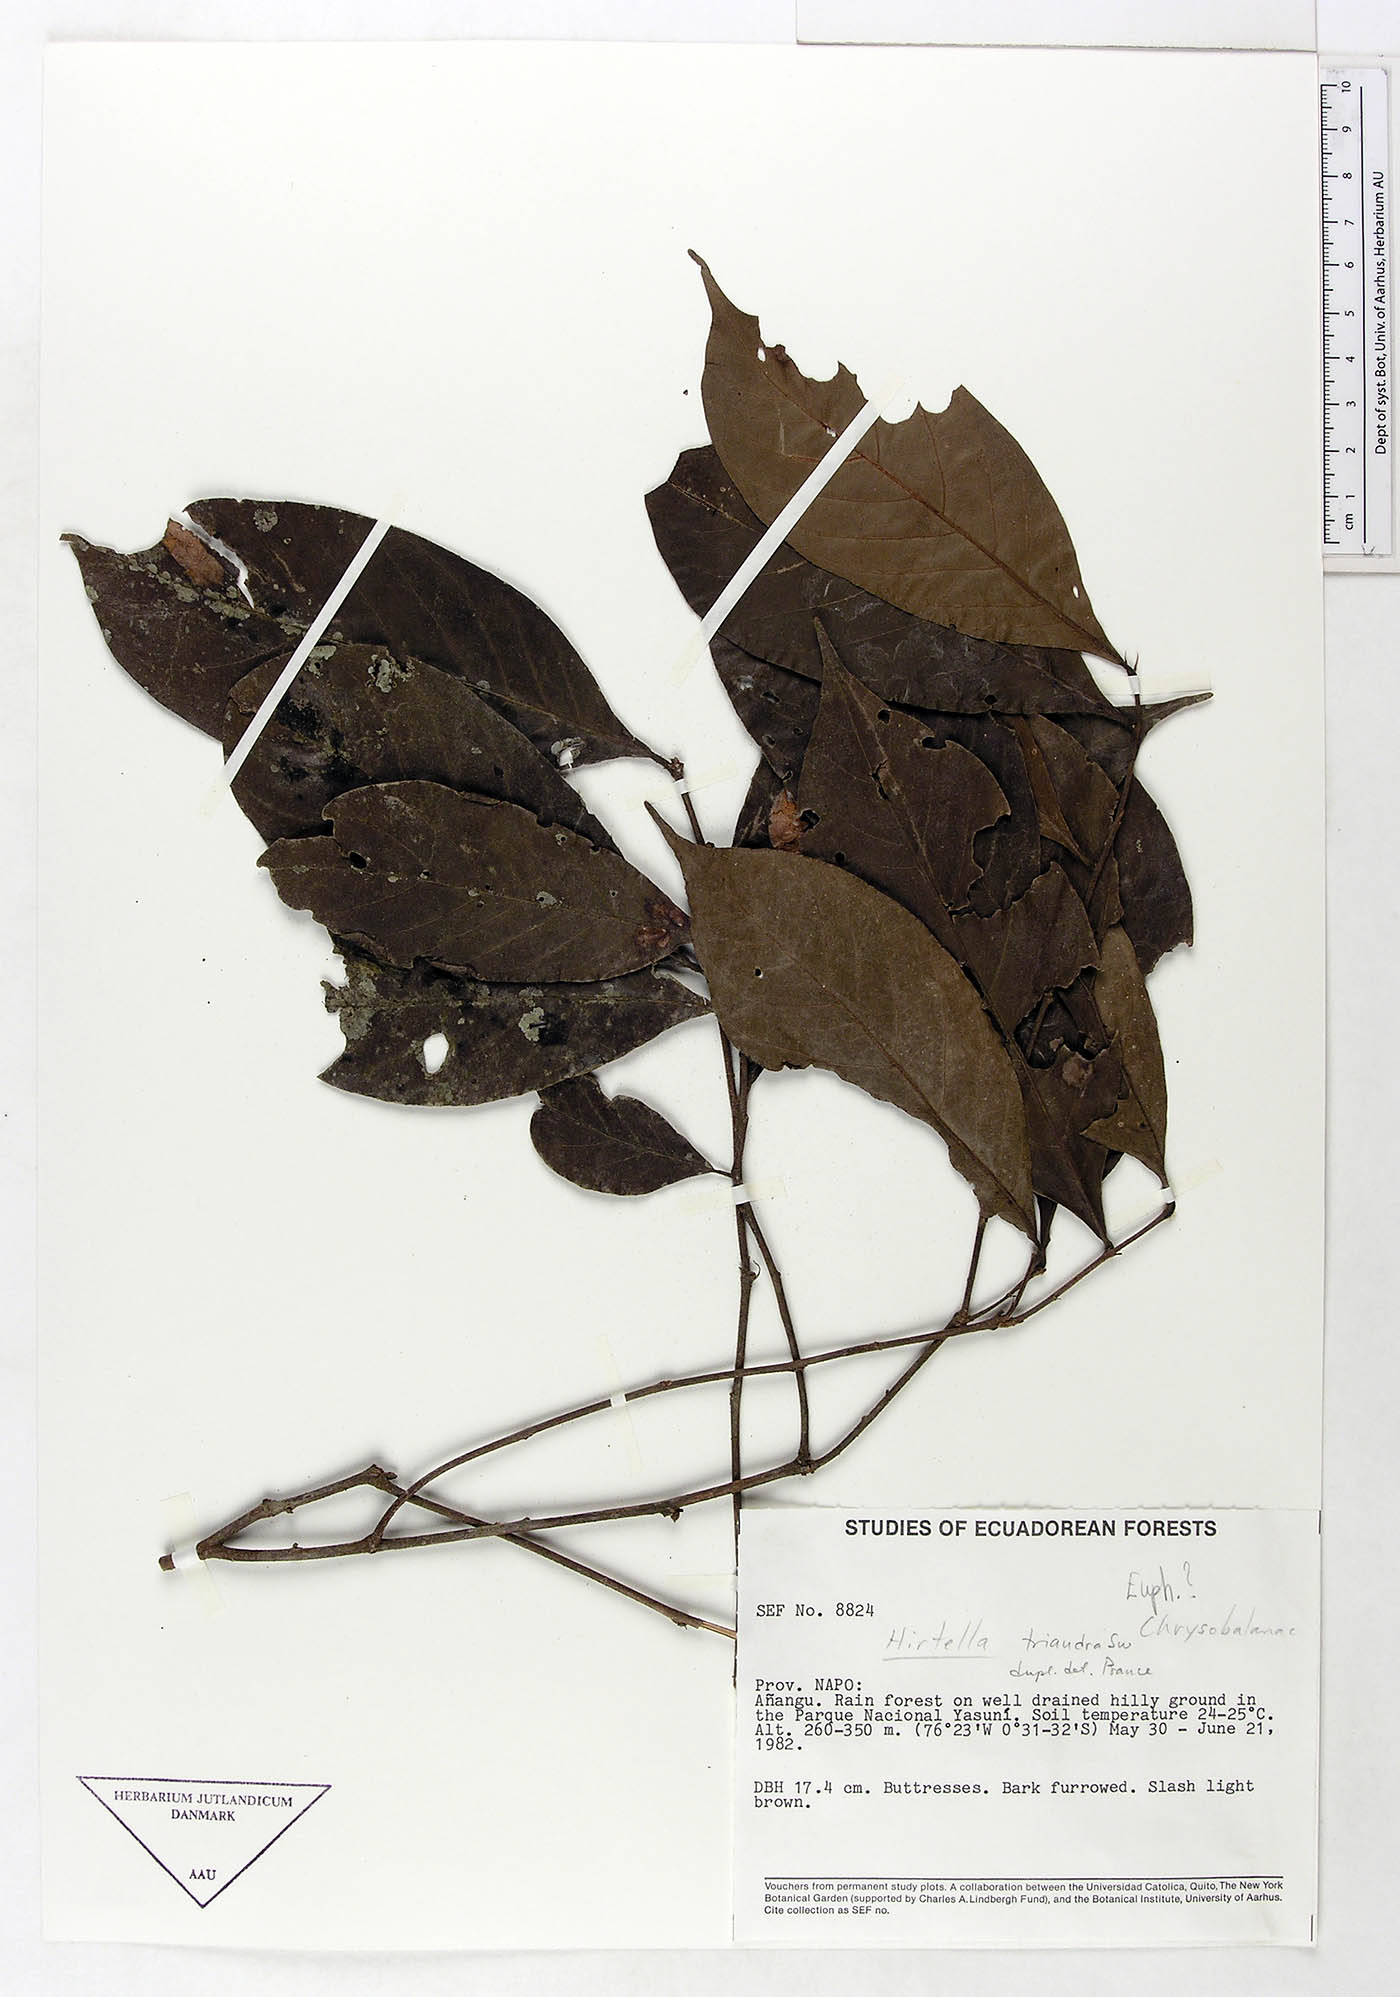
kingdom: Plantae
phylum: Tracheophyta
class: Magnoliopsida
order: Malpighiales
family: Chrysobalanaceae
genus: Hirtella
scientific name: Hirtella triandra
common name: Hairy plum
